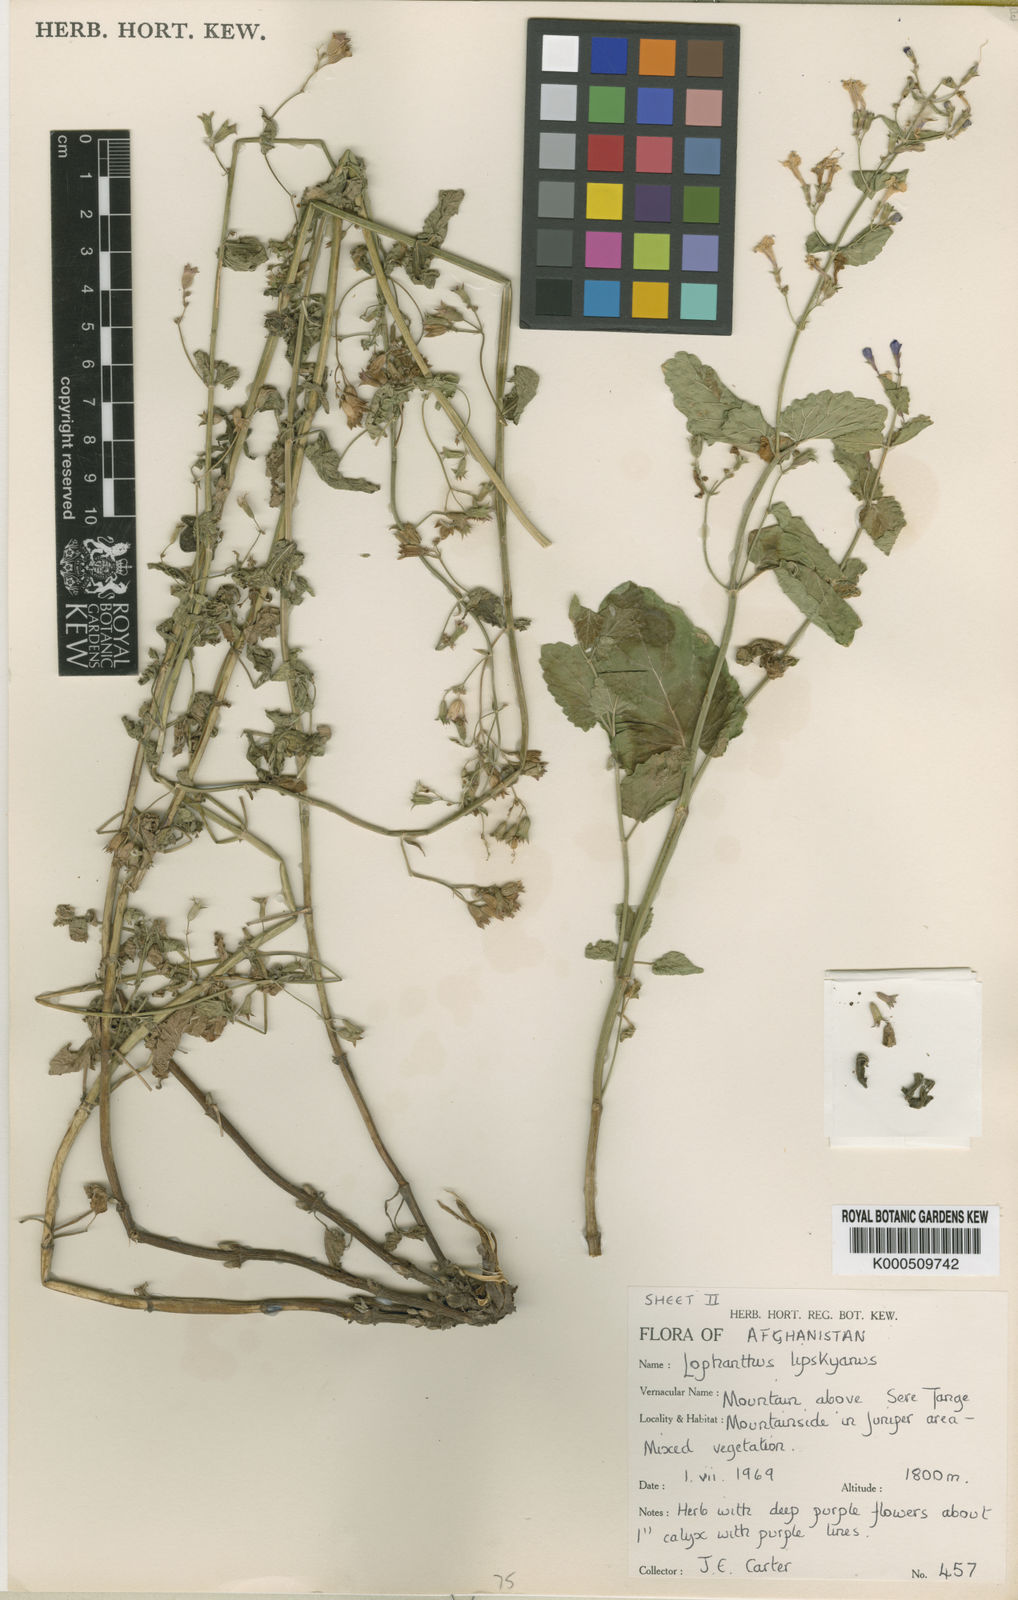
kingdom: Plantae
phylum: Tracheophyta
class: Magnoliopsida
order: Lamiales
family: Lamiaceae
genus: Nepeta
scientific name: Nepeta ouroumitanensis
